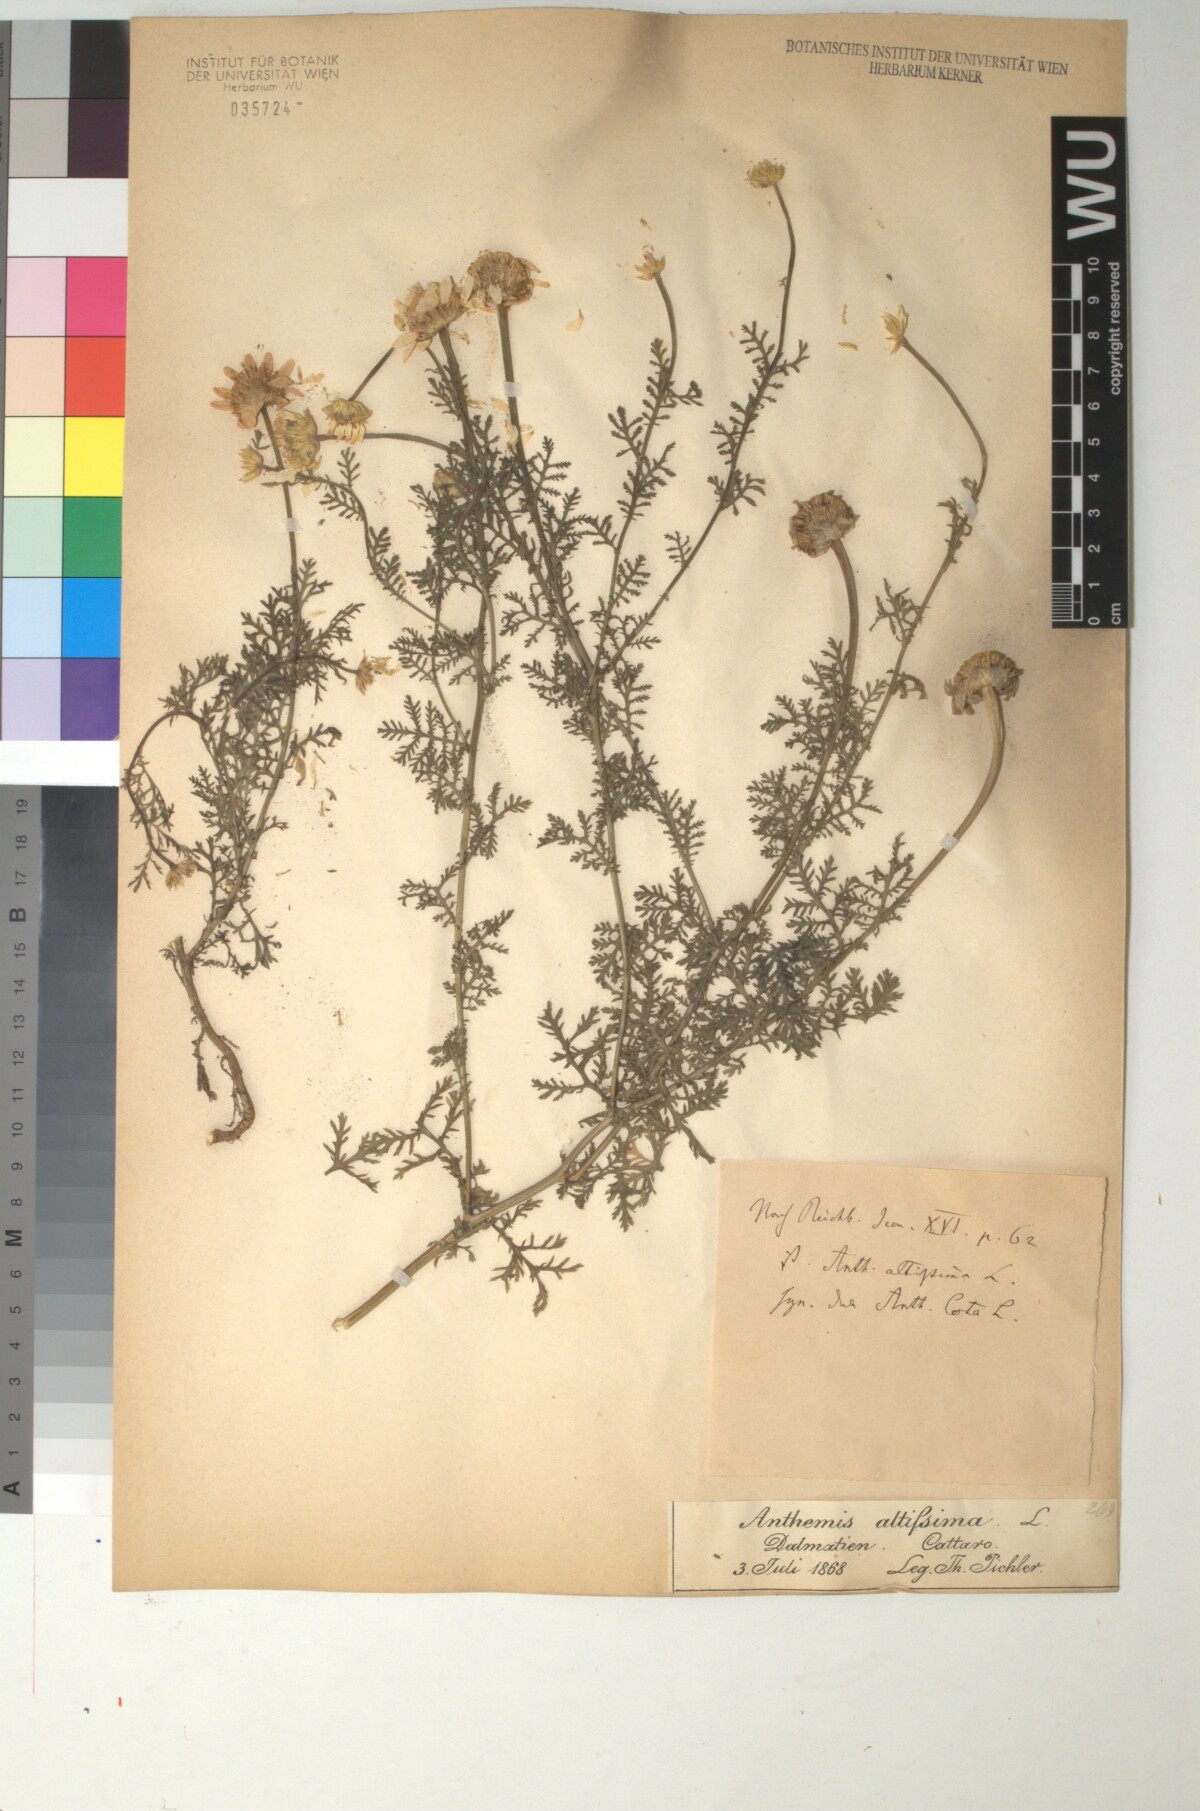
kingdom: Plantae
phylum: Tracheophyta
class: Magnoliopsida
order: Asterales
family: Asteraceae
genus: Cota
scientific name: Cota altissima
